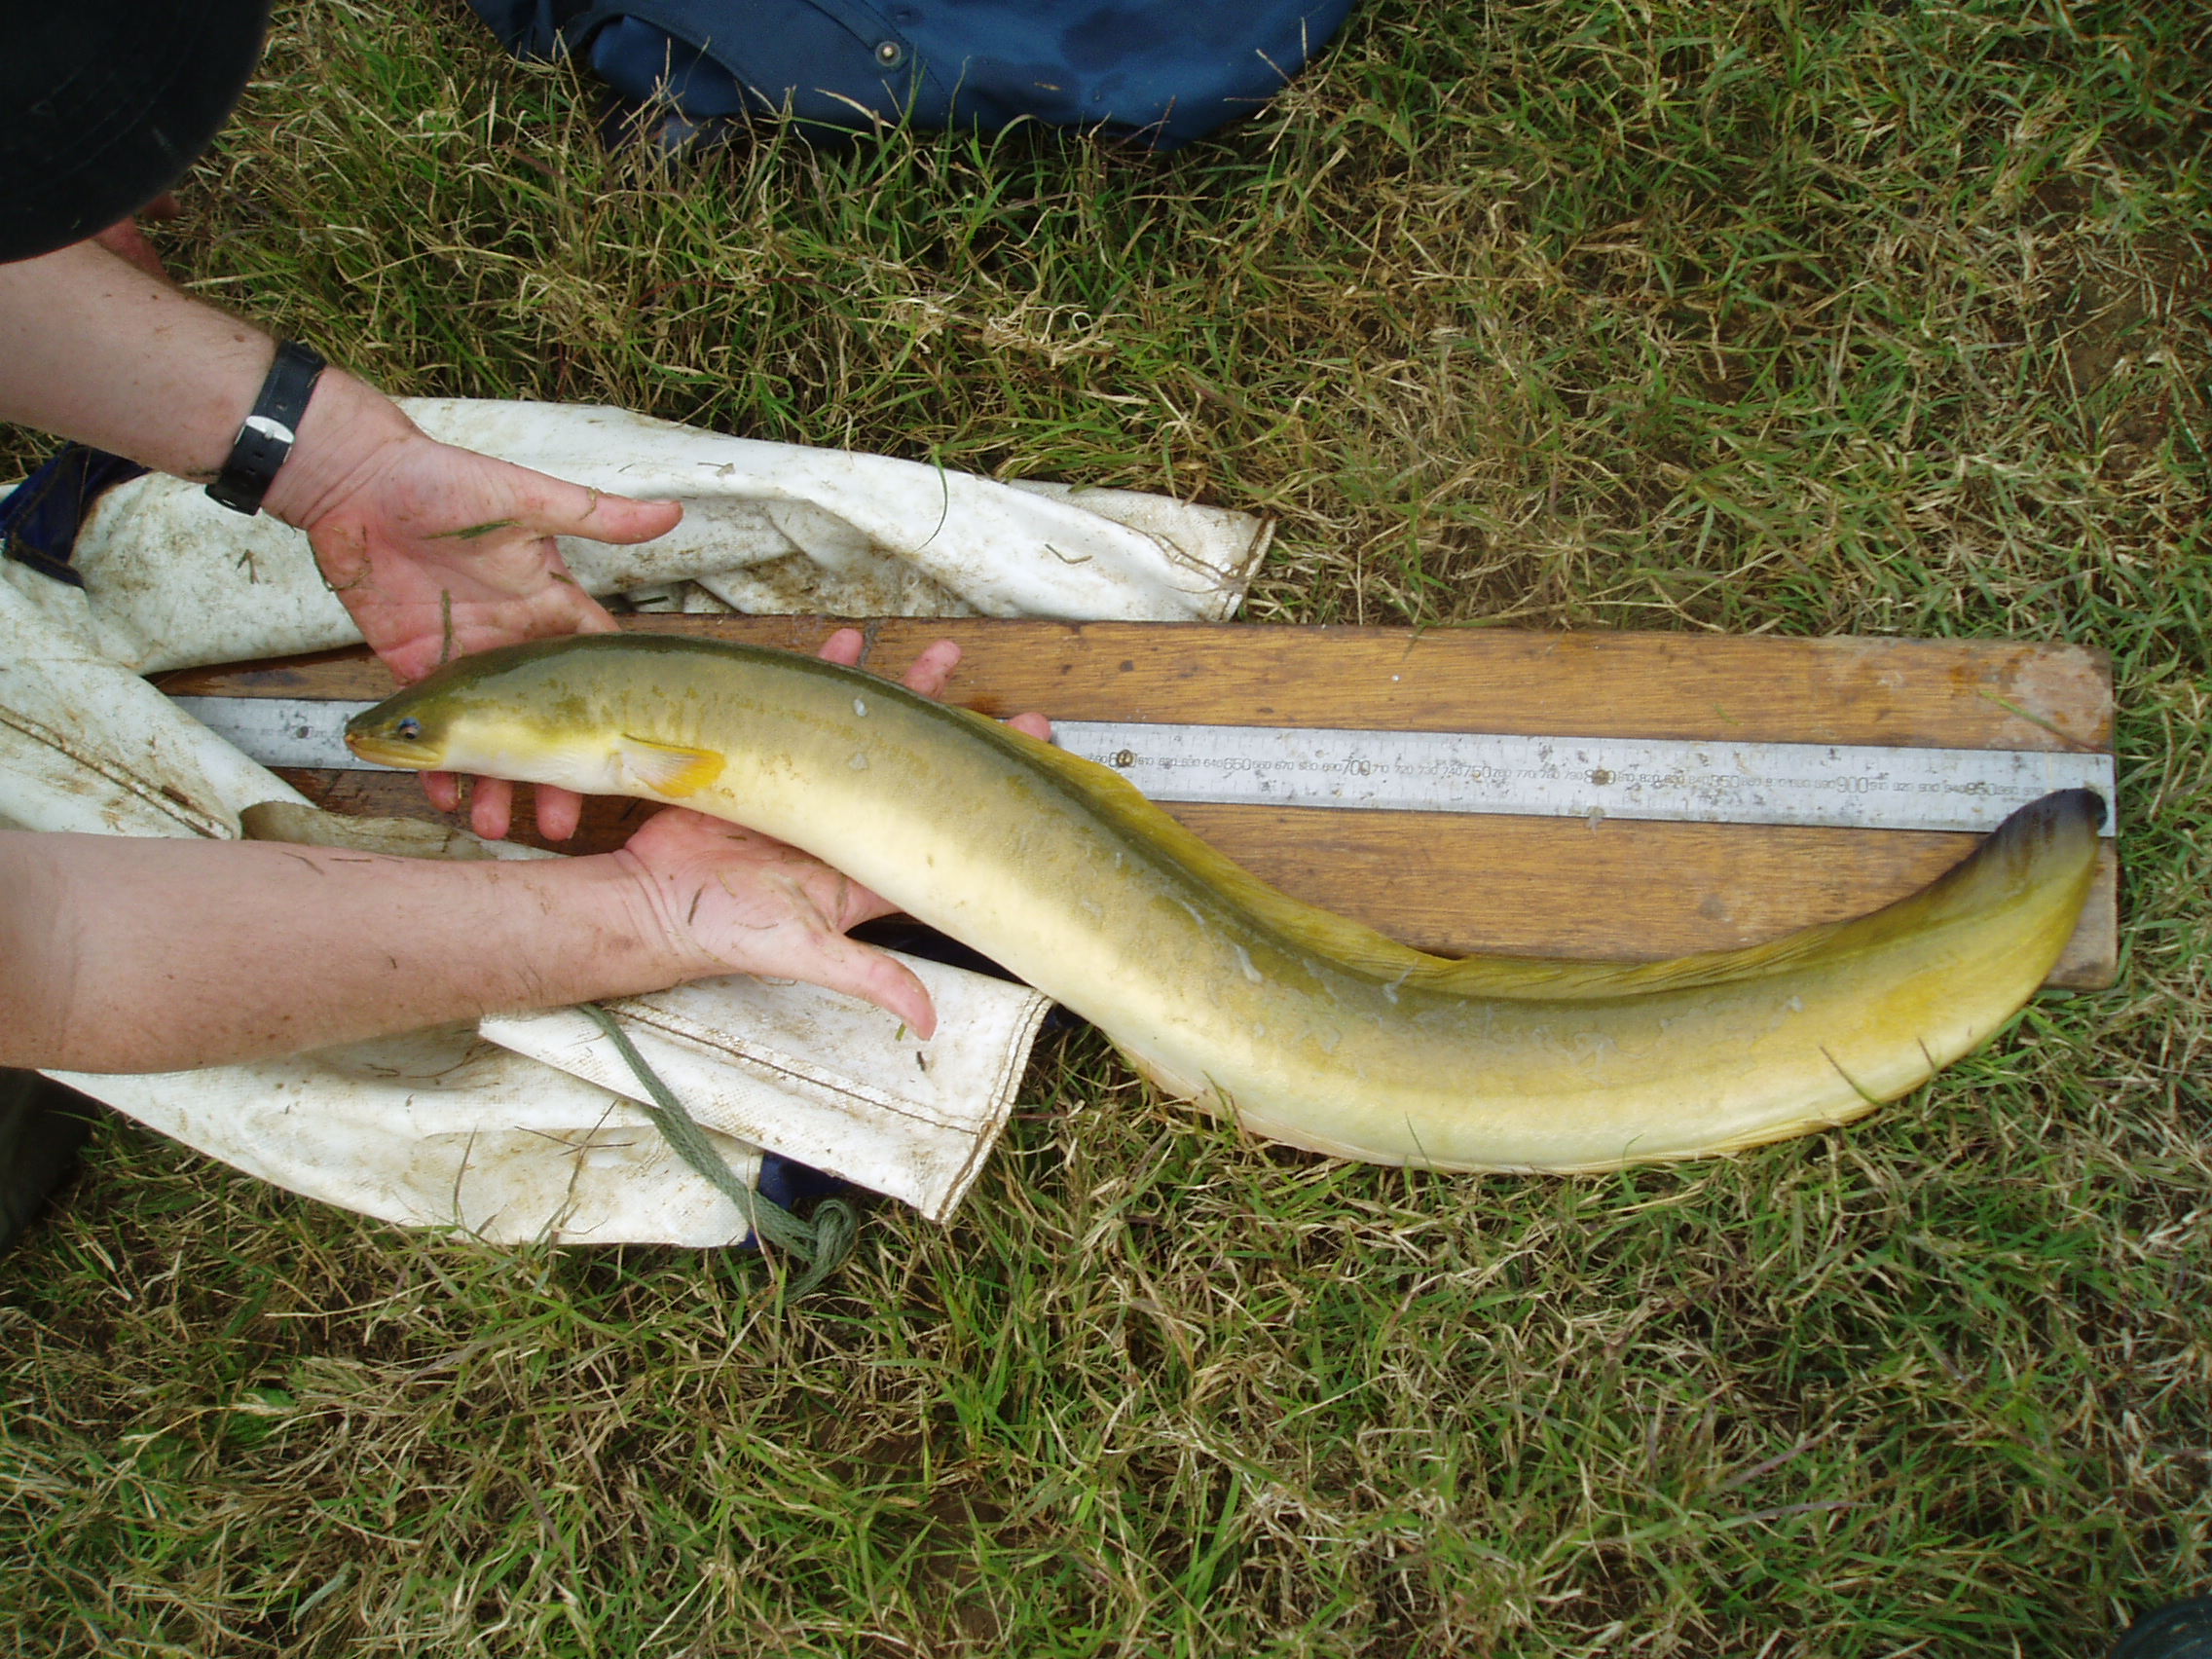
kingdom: Animalia
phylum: Chordata
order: Anguilliformes
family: Anguillidae
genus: Anguilla
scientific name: Anguilla mossambica
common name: African longfin eel
